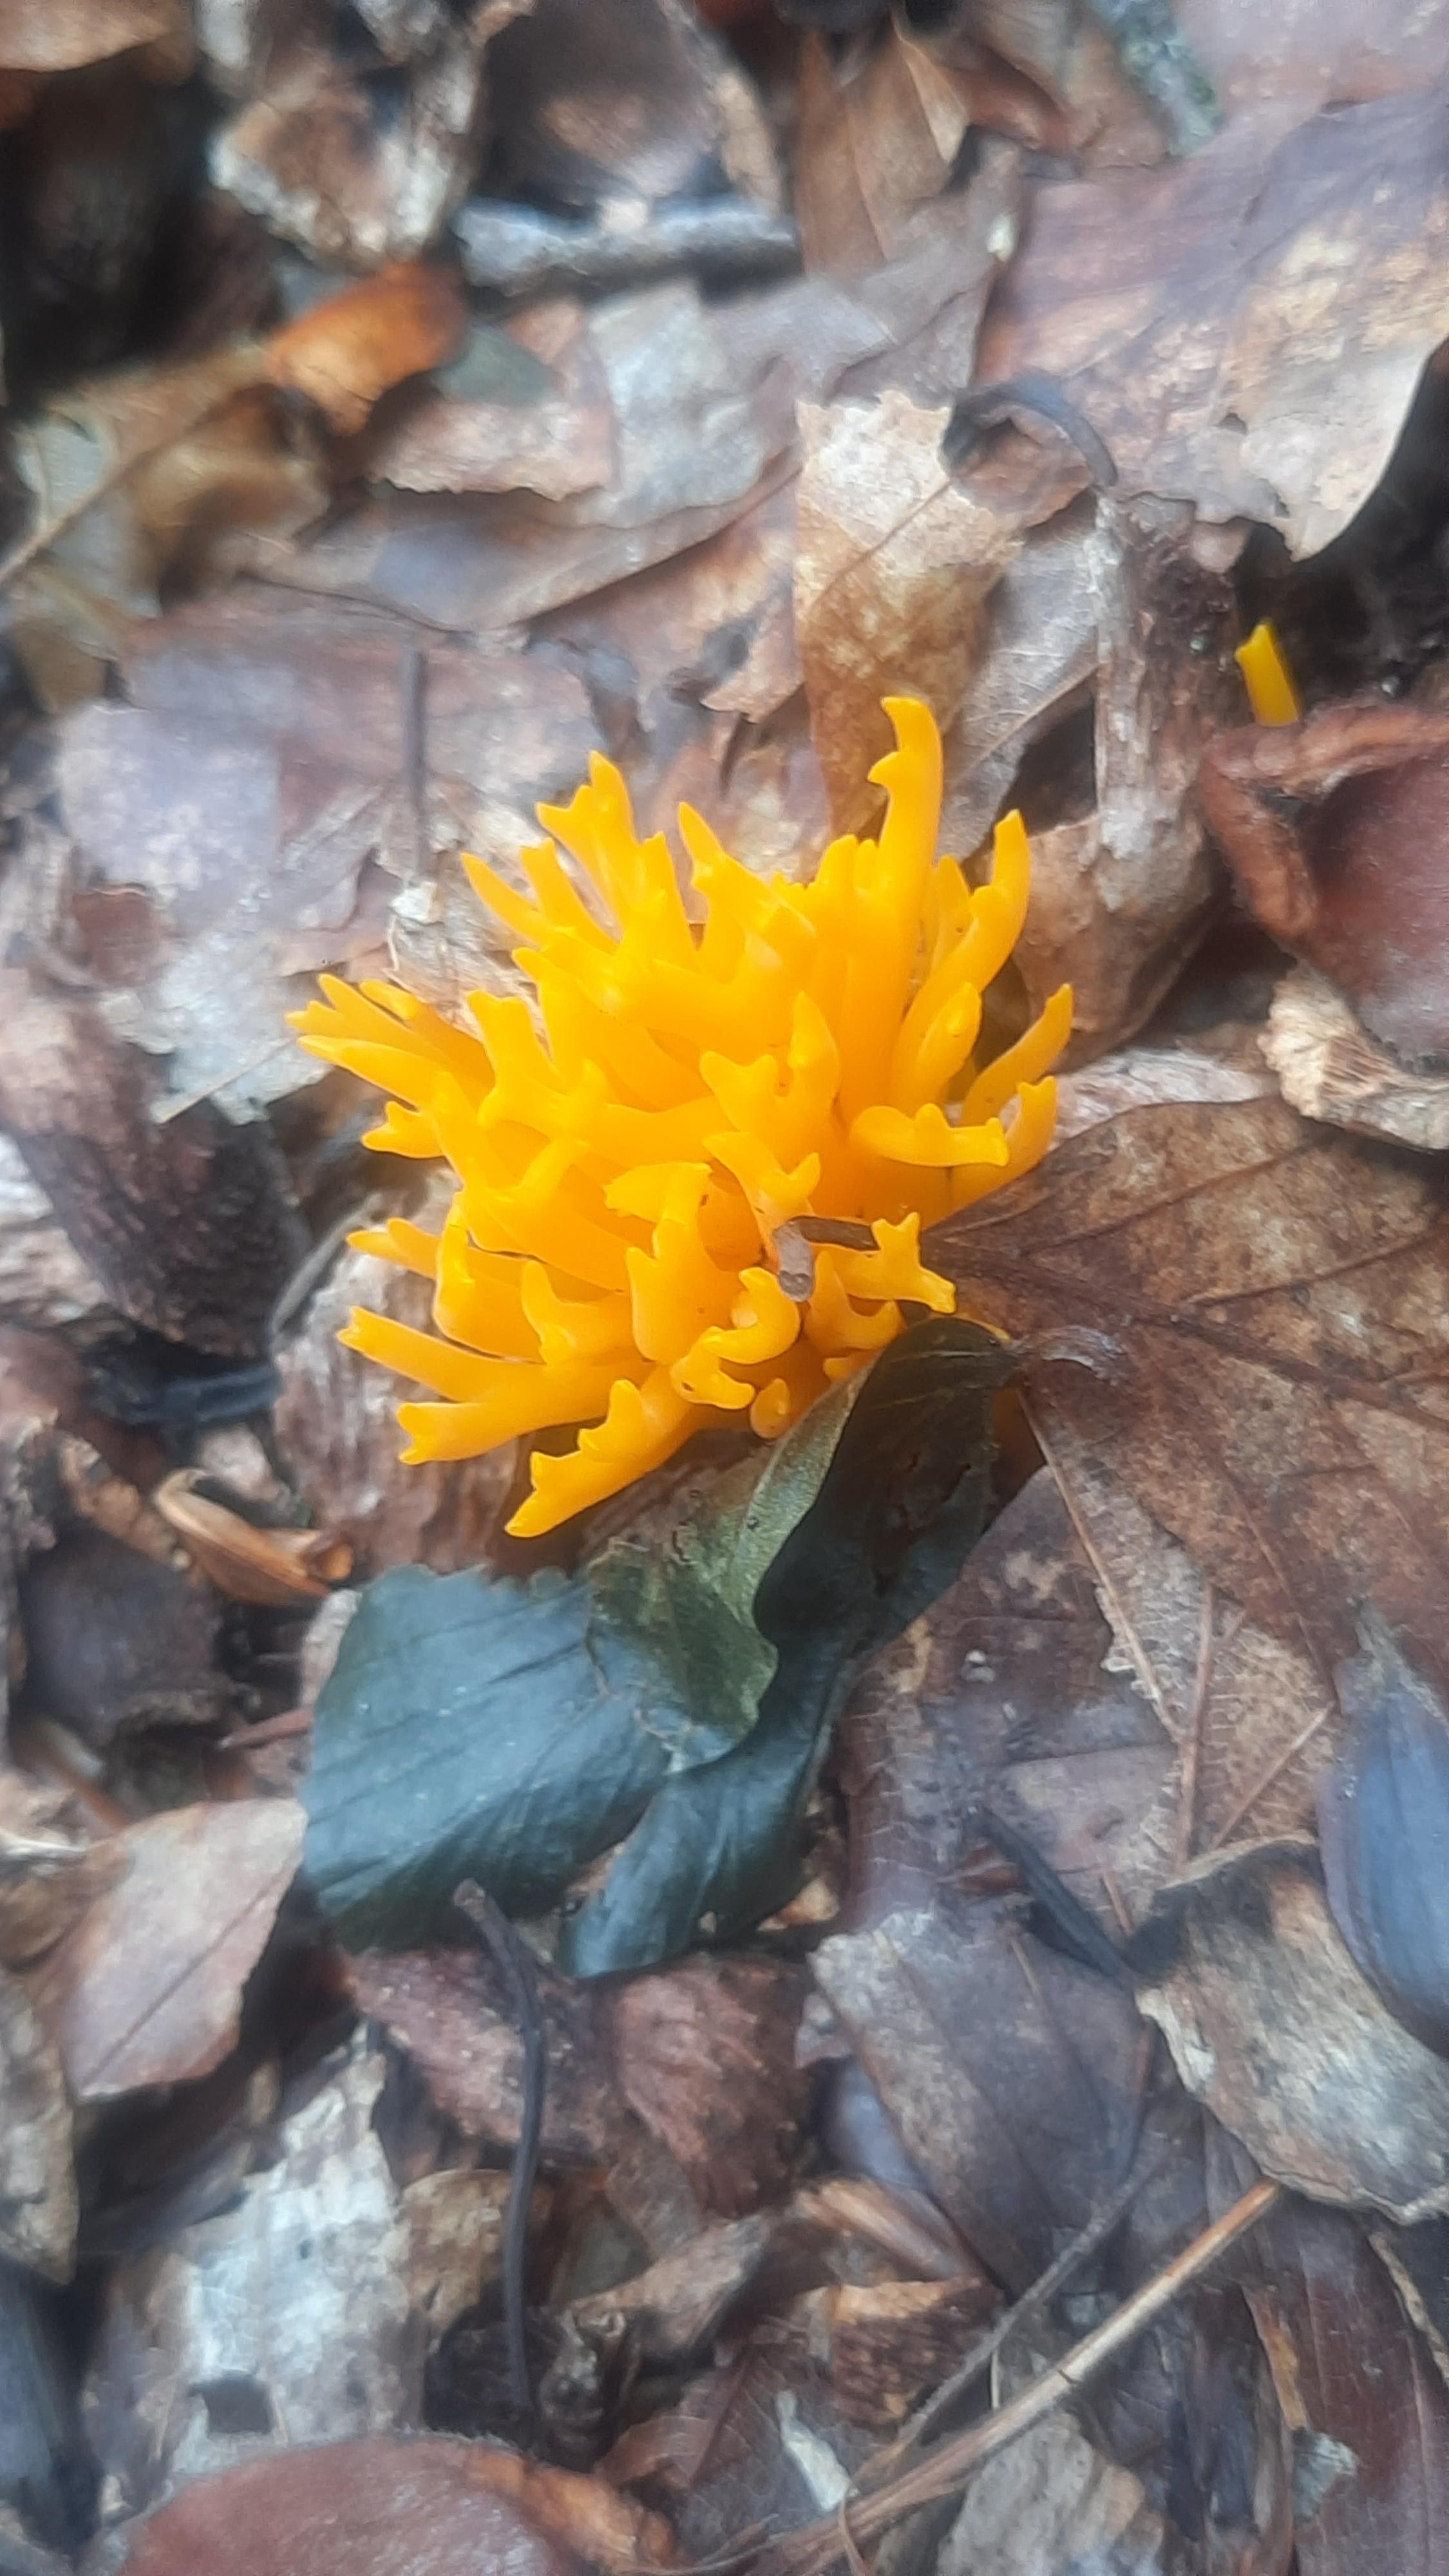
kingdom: Fungi
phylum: Basidiomycota
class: Dacrymycetes
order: Dacrymycetales
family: Dacrymycetaceae
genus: Calocera
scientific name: Calocera viscosa
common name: almindelig guldgaffel
